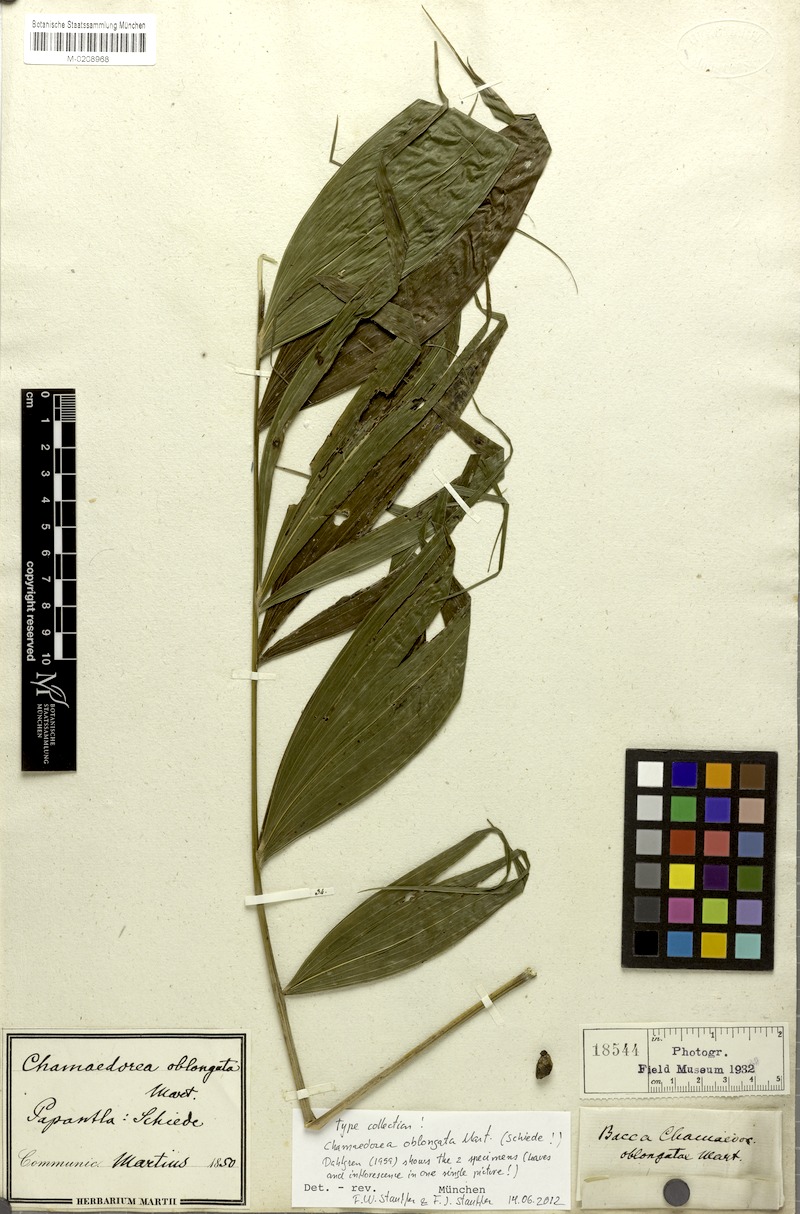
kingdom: Plantae
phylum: Tracheophyta
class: Liliopsida
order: Arecales
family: Arecaceae
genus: Chamaedorea
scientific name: Chamaedorea oblongata
